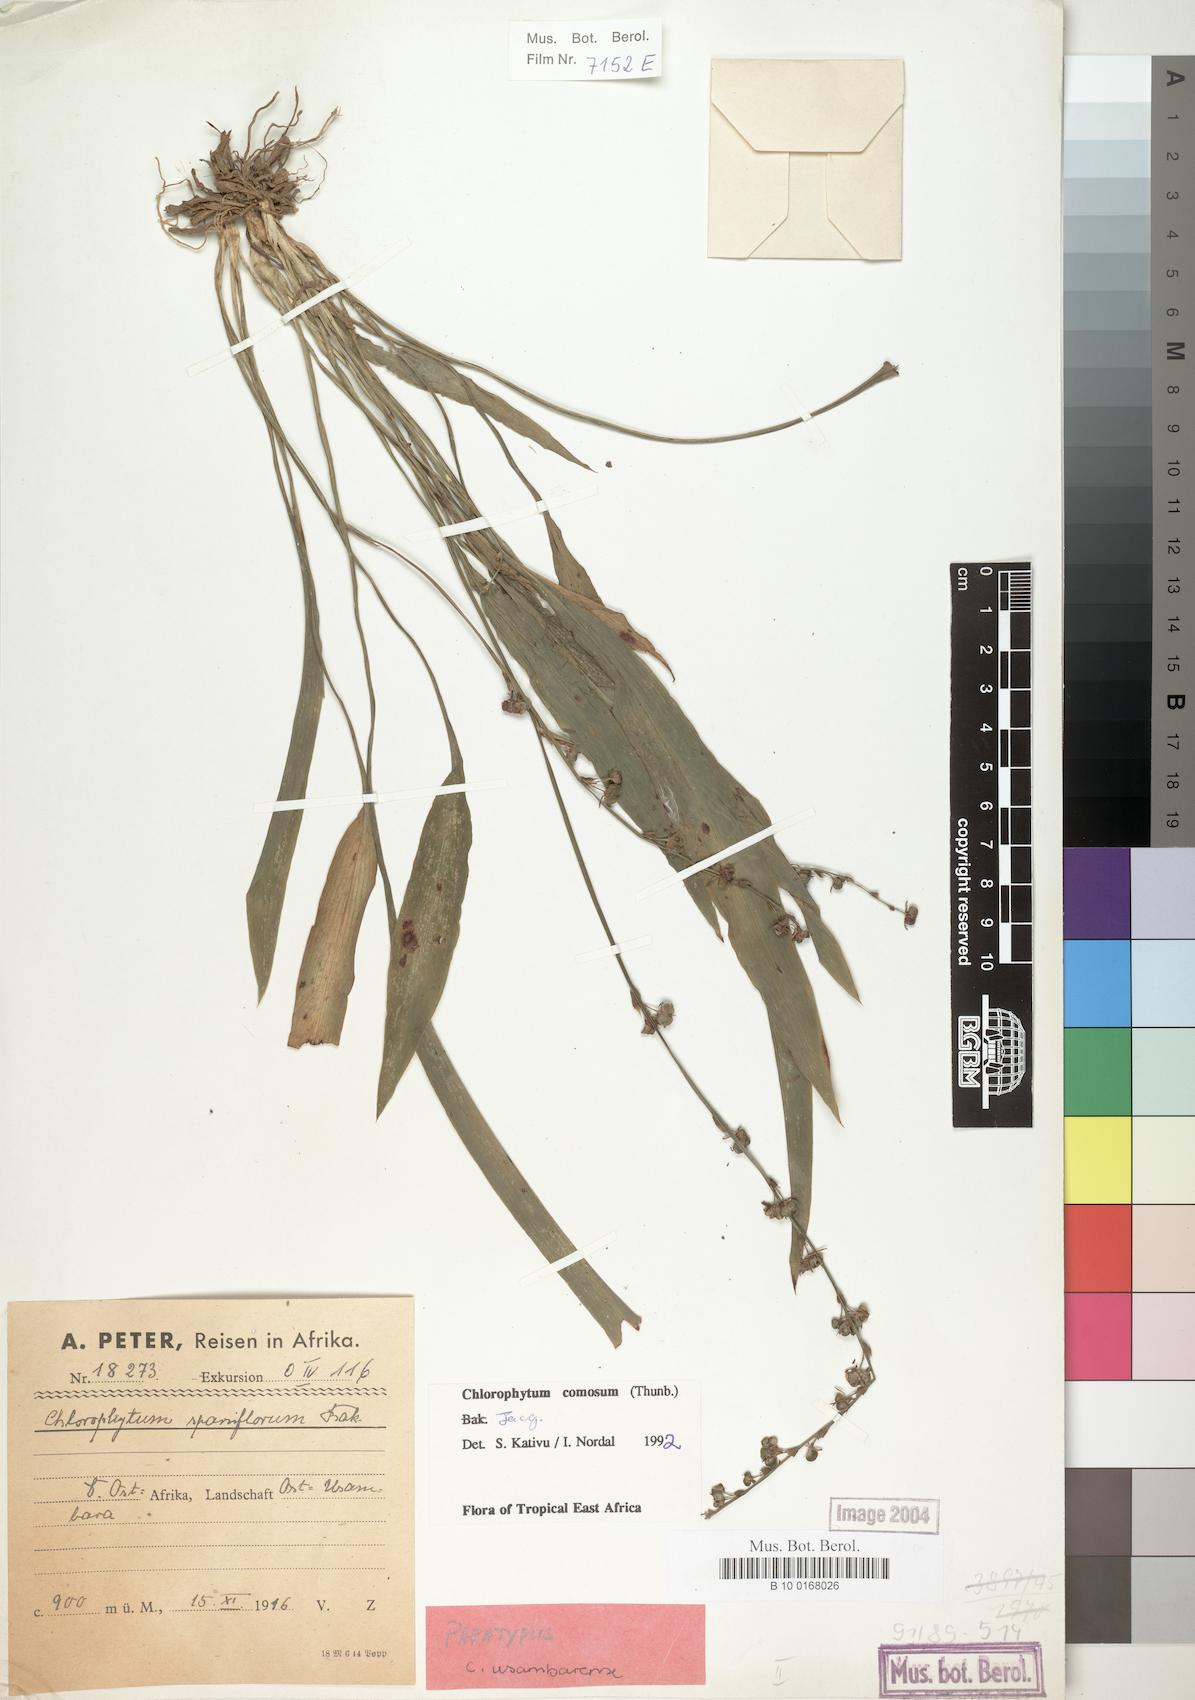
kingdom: Plantae
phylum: Tracheophyta
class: Liliopsida
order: Asparagales
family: Asparagaceae
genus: Chlorophytum
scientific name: Chlorophytum comosum
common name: Spider plant
